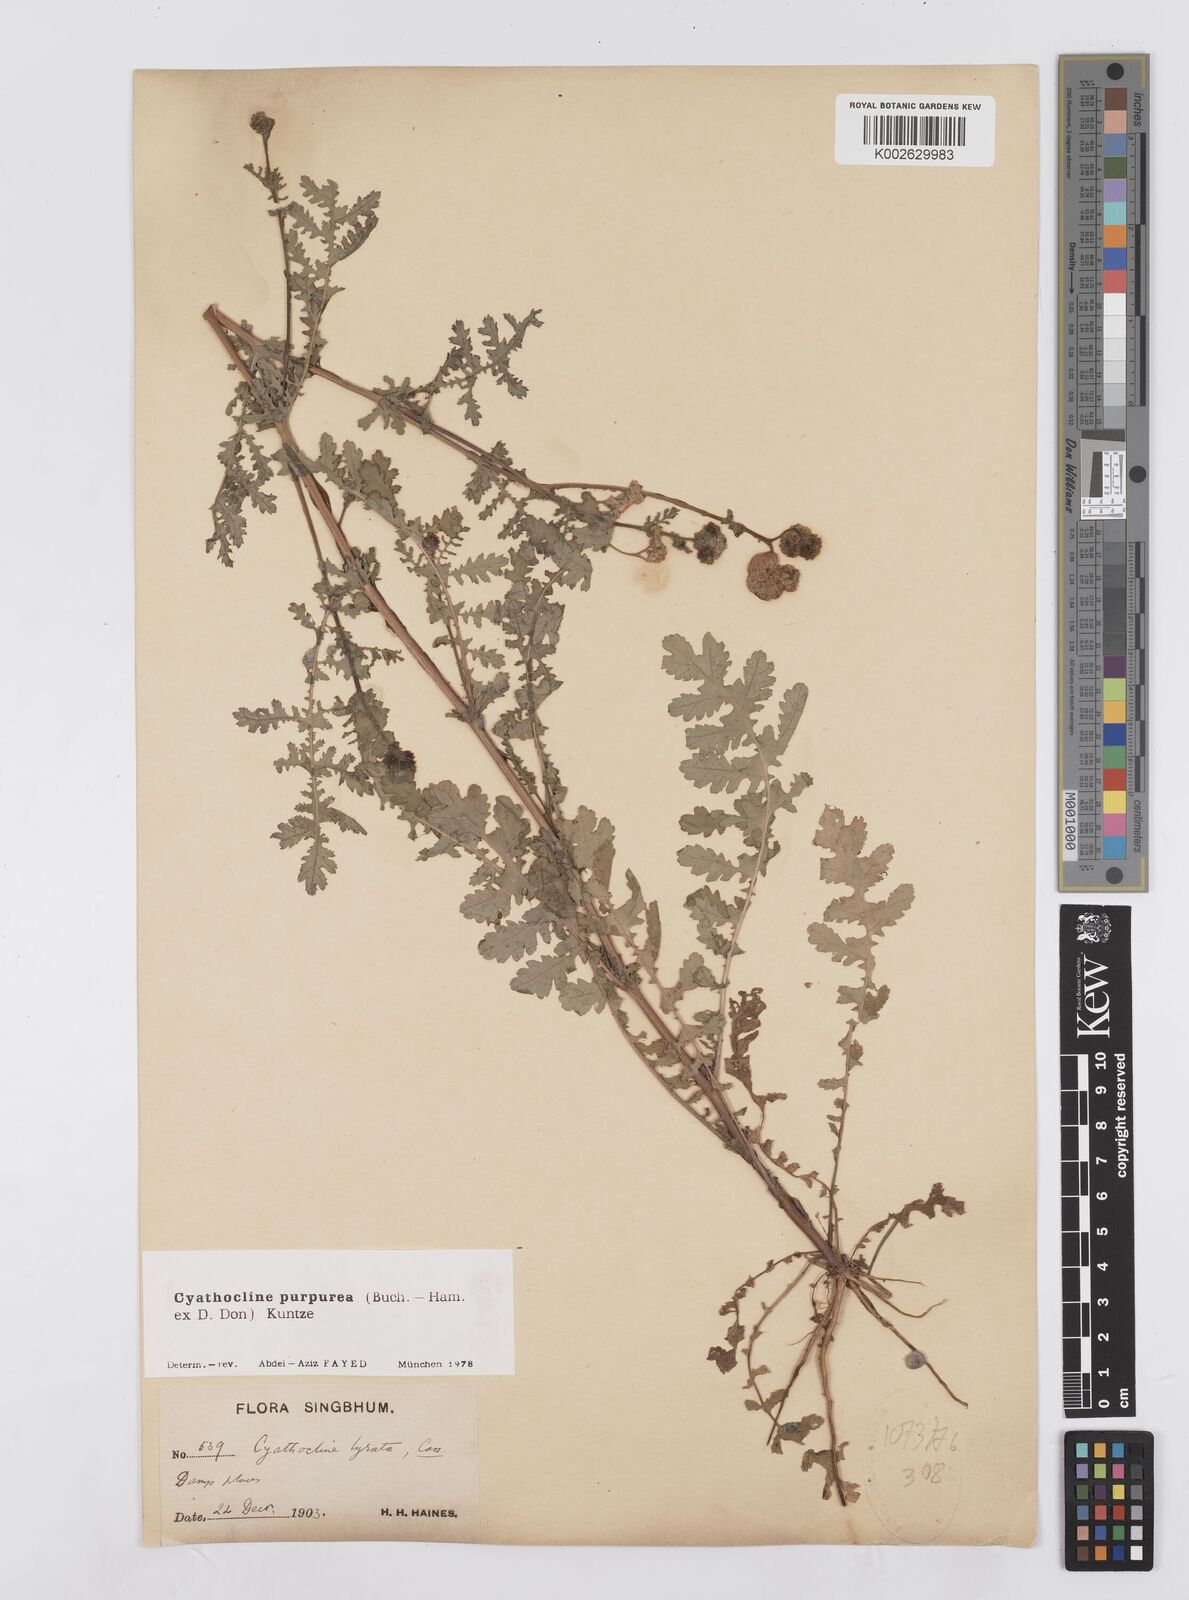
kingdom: Plantae
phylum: Tracheophyta
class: Magnoliopsida
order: Asterales
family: Asteraceae
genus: Cyathocline
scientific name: Cyathocline purpurea
